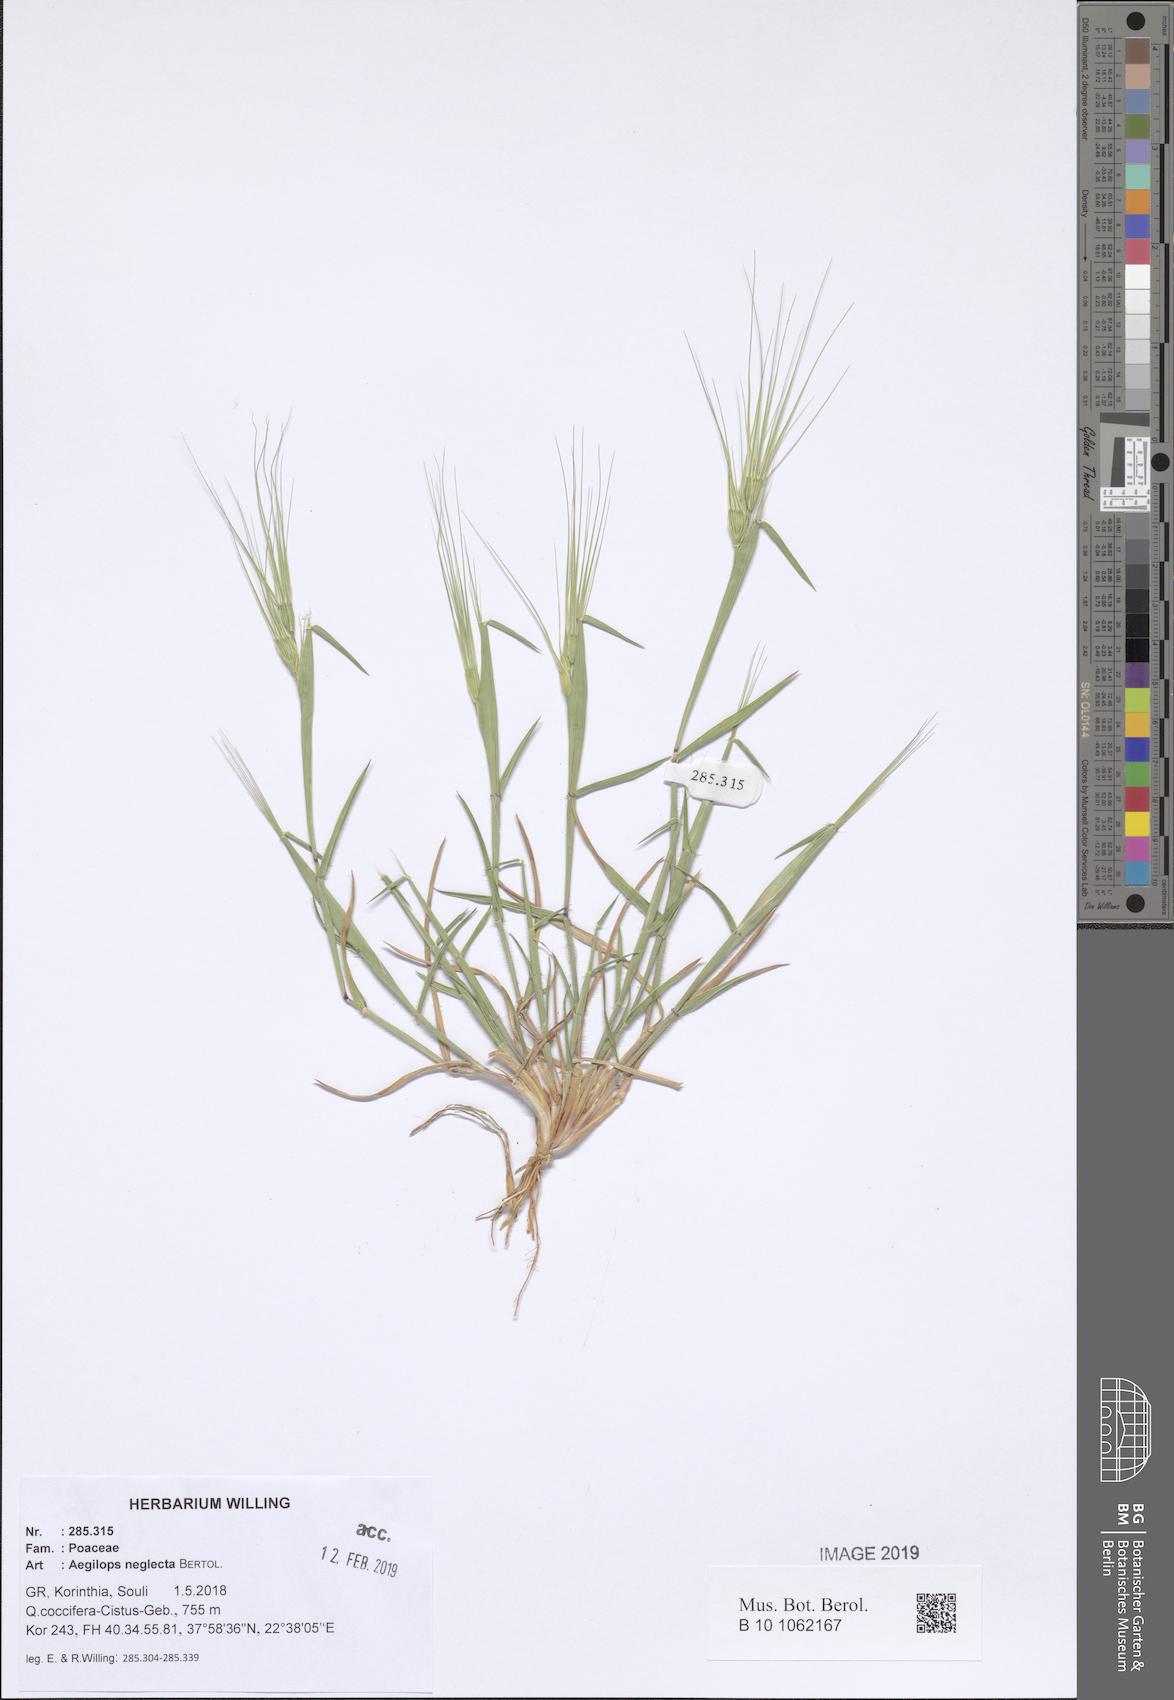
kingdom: Plantae
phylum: Tracheophyta
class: Liliopsida
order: Poales
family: Poaceae
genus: Aegilops
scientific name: Aegilops neglecta
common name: Three-awn goat grass
